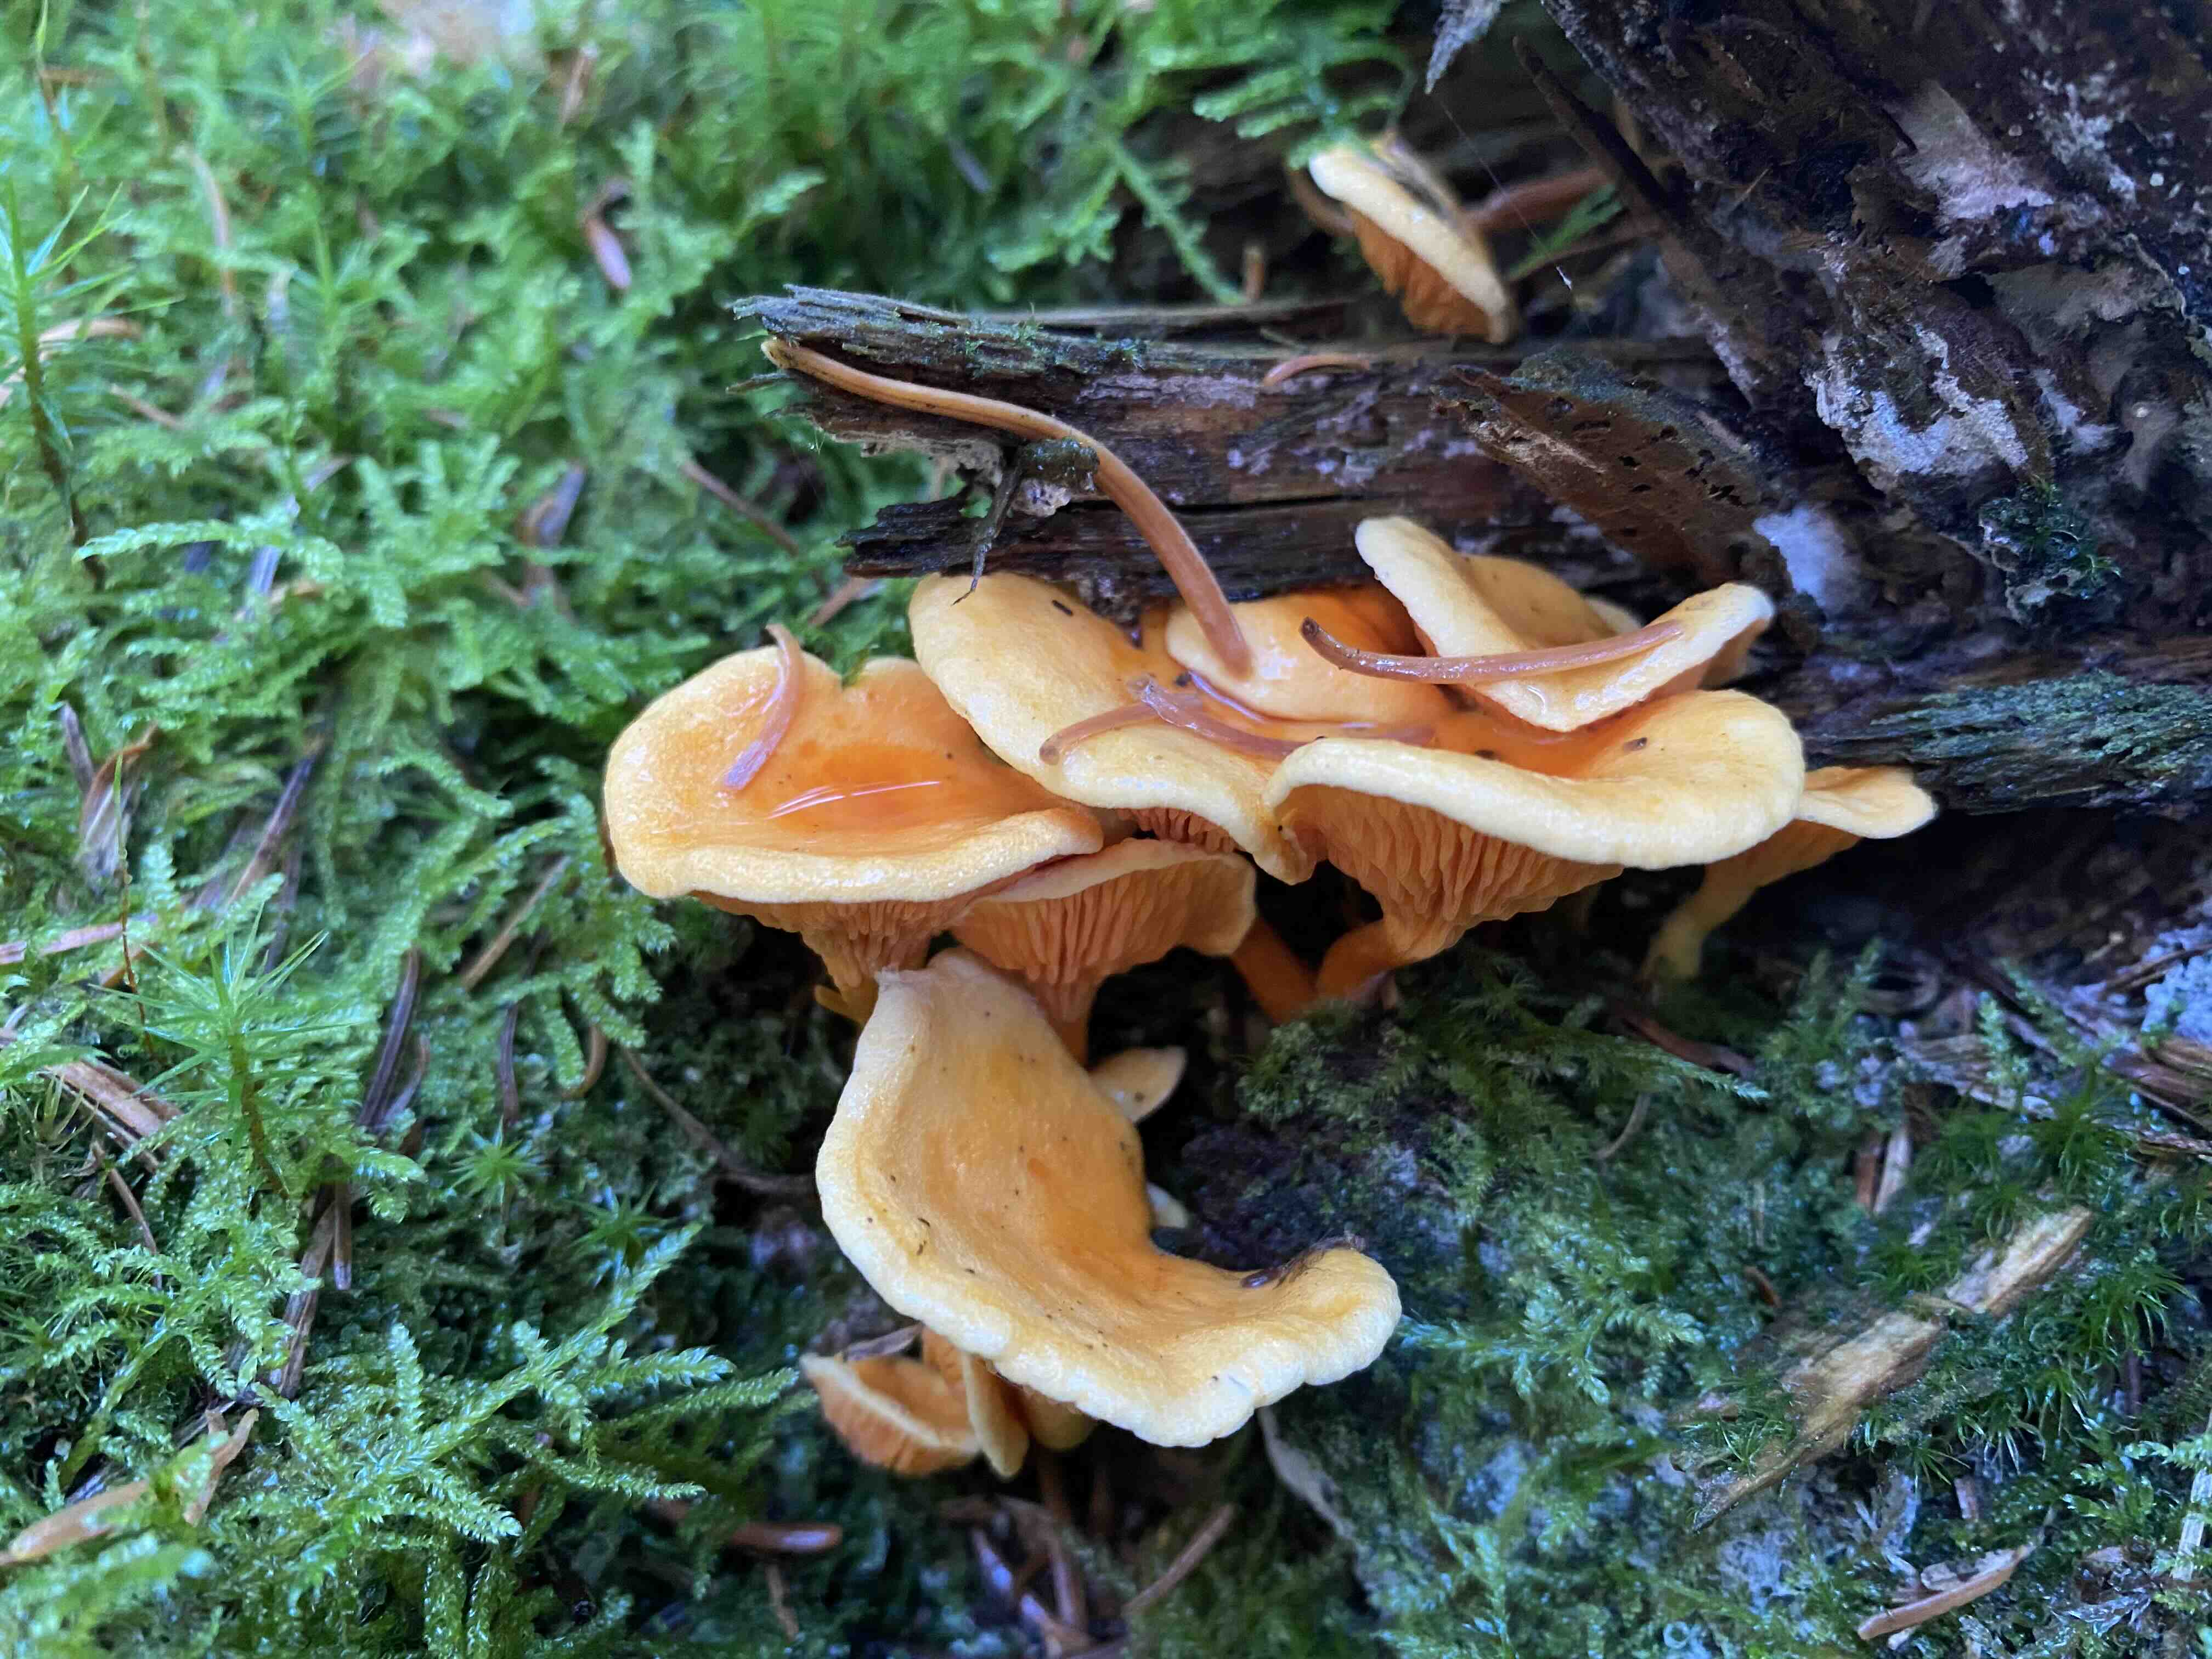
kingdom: Fungi
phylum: Basidiomycota
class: Agaricomycetes
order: Boletales
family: Hygrophoropsidaceae
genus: Hygrophoropsis
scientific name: Hygrophoropsis aurantiaca
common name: almindelig orangekantarel
